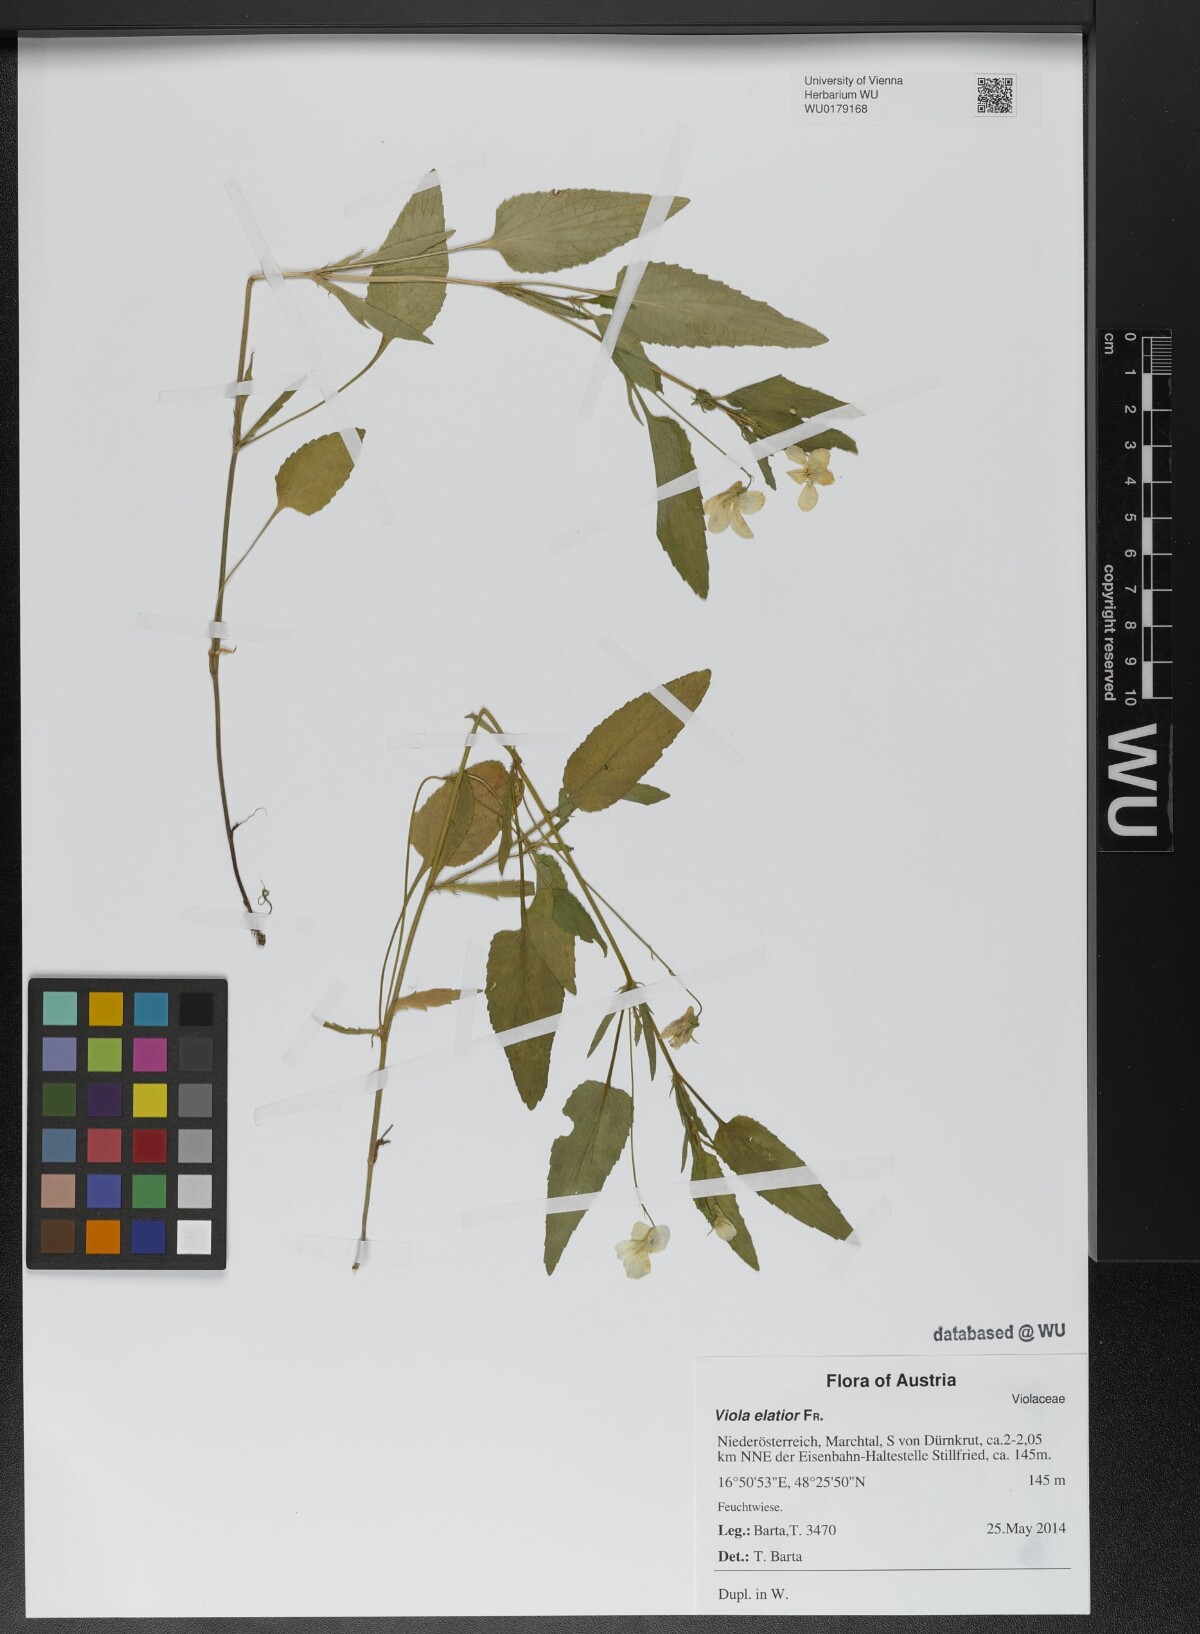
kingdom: Plantae
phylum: Tracheophyta
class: Magnoliopsida
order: Malpighiales
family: Violaceae
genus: Viola
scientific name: Viola elatior
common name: Tall violet
